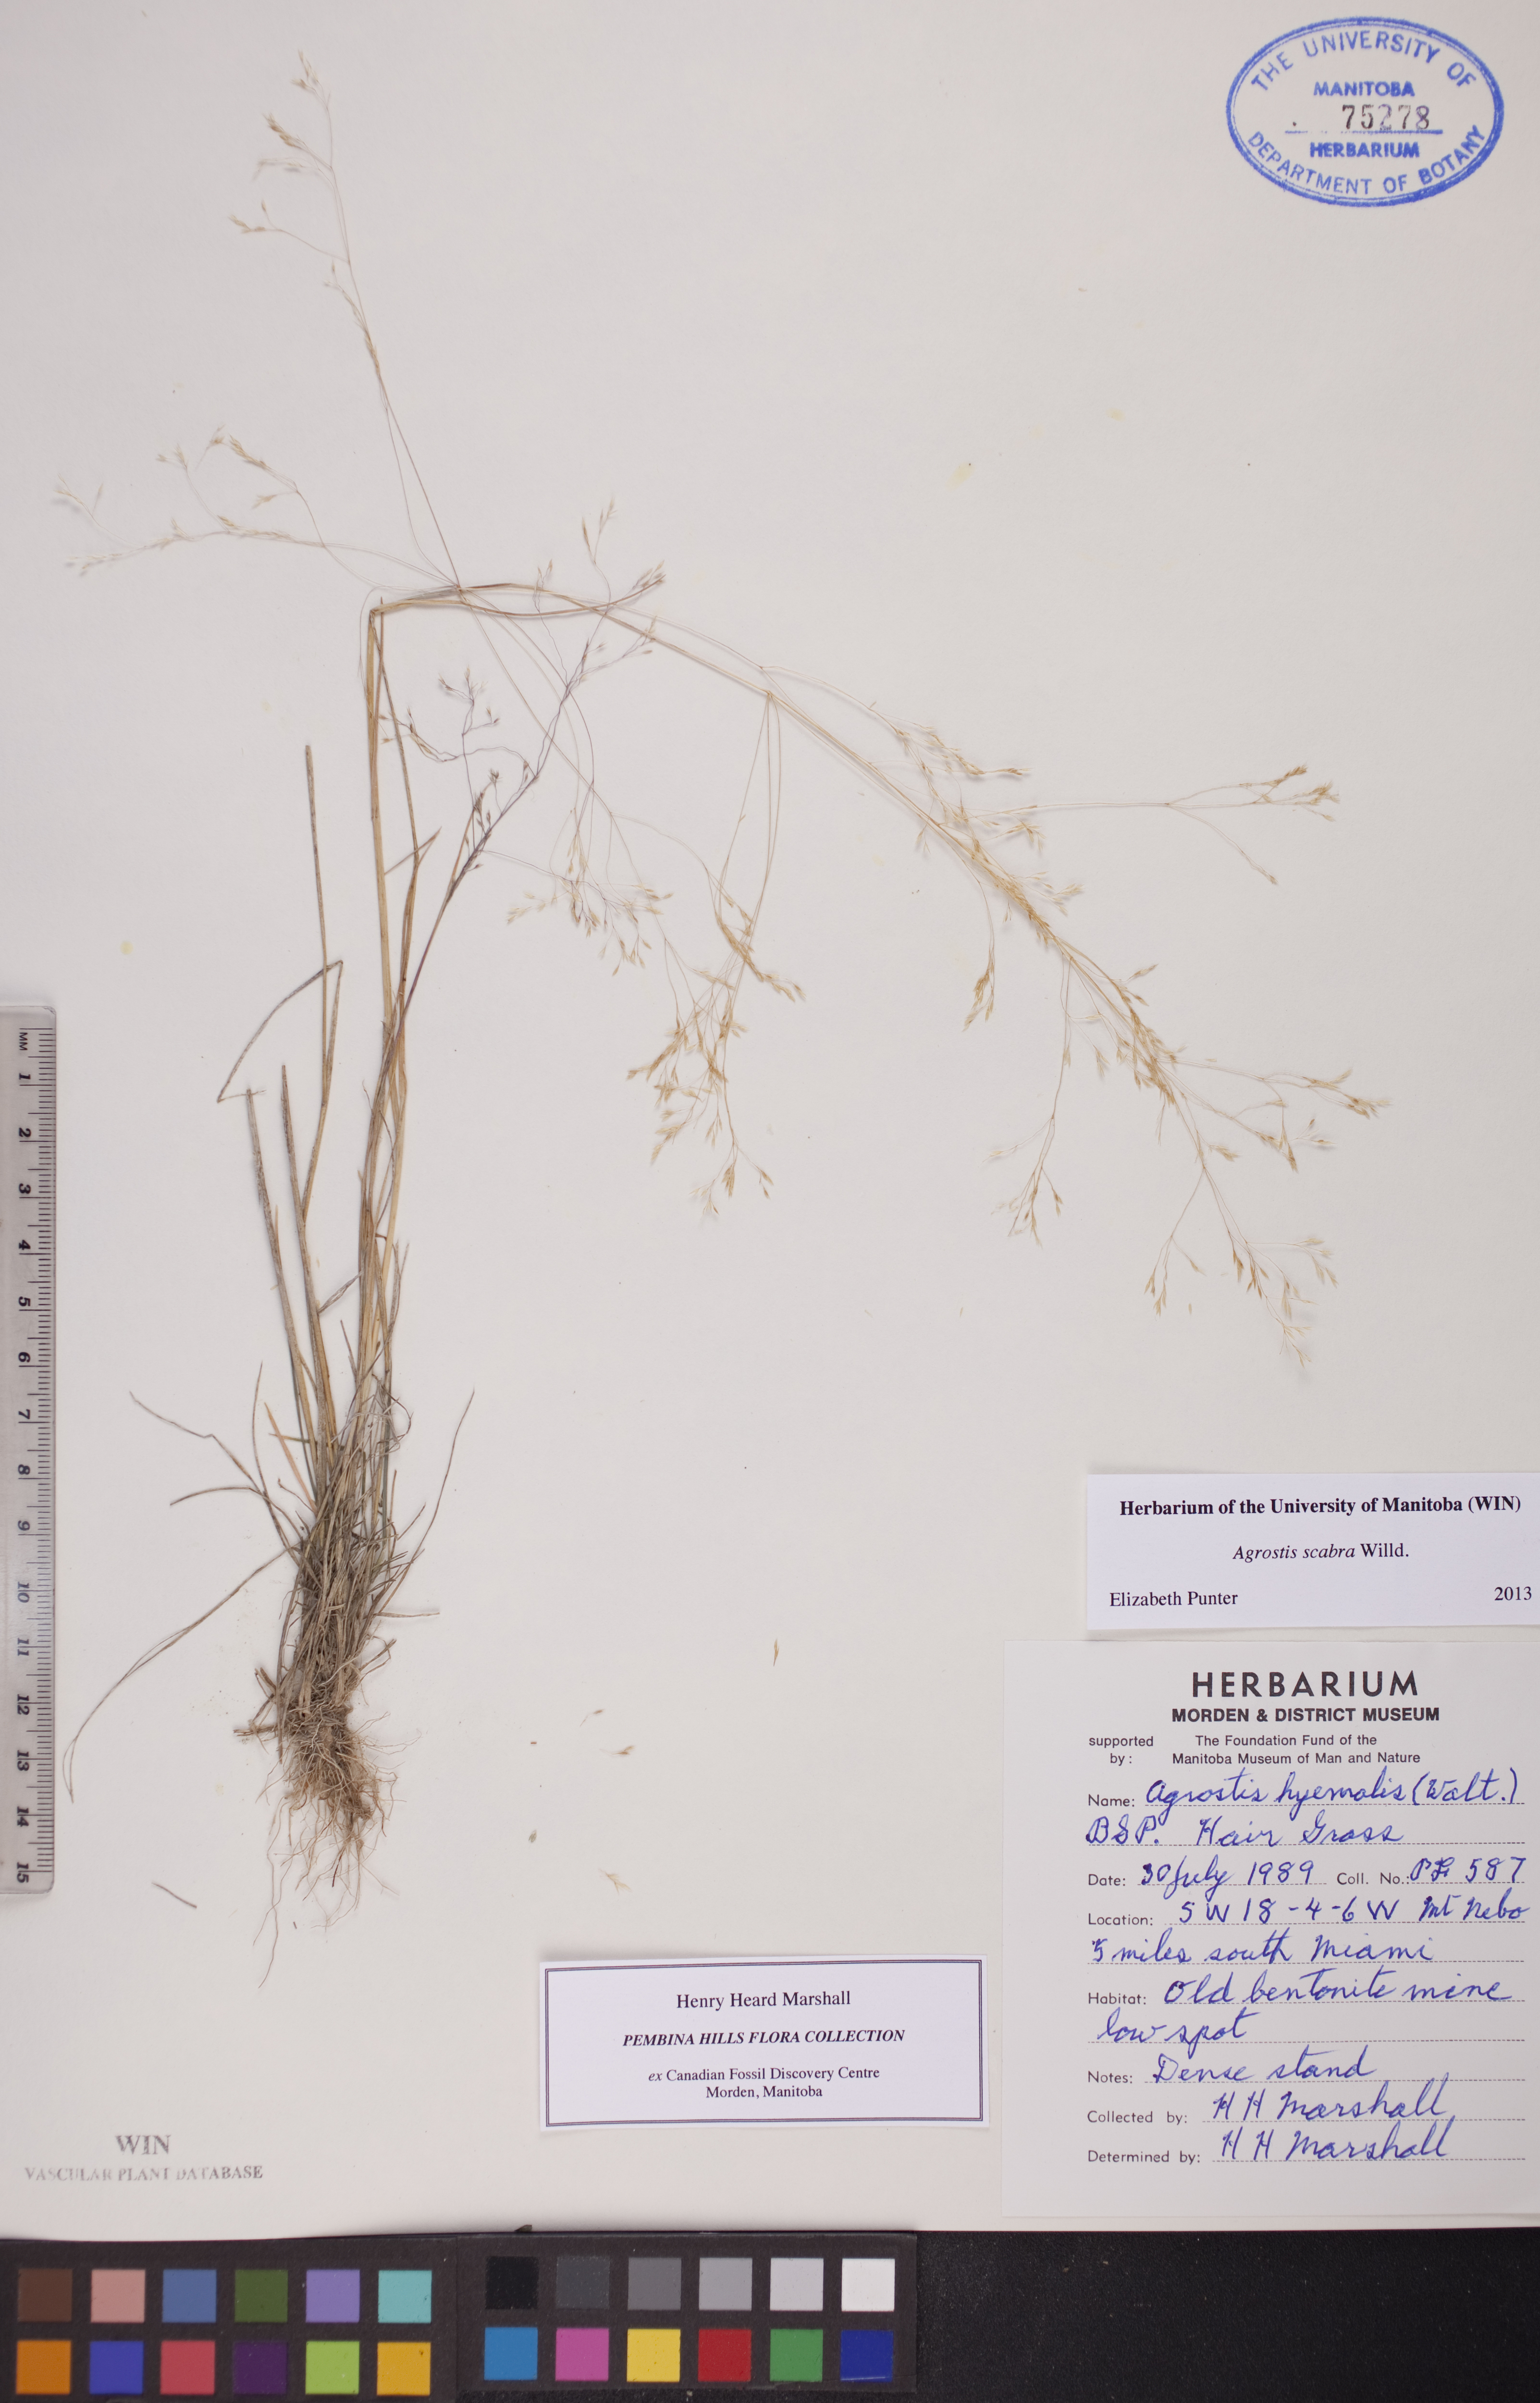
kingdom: Plantae
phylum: Tracheophyta
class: Liliopsida
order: Poales
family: Poaceae
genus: Agrostis
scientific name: Agrostis scabra
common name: Rough bent
